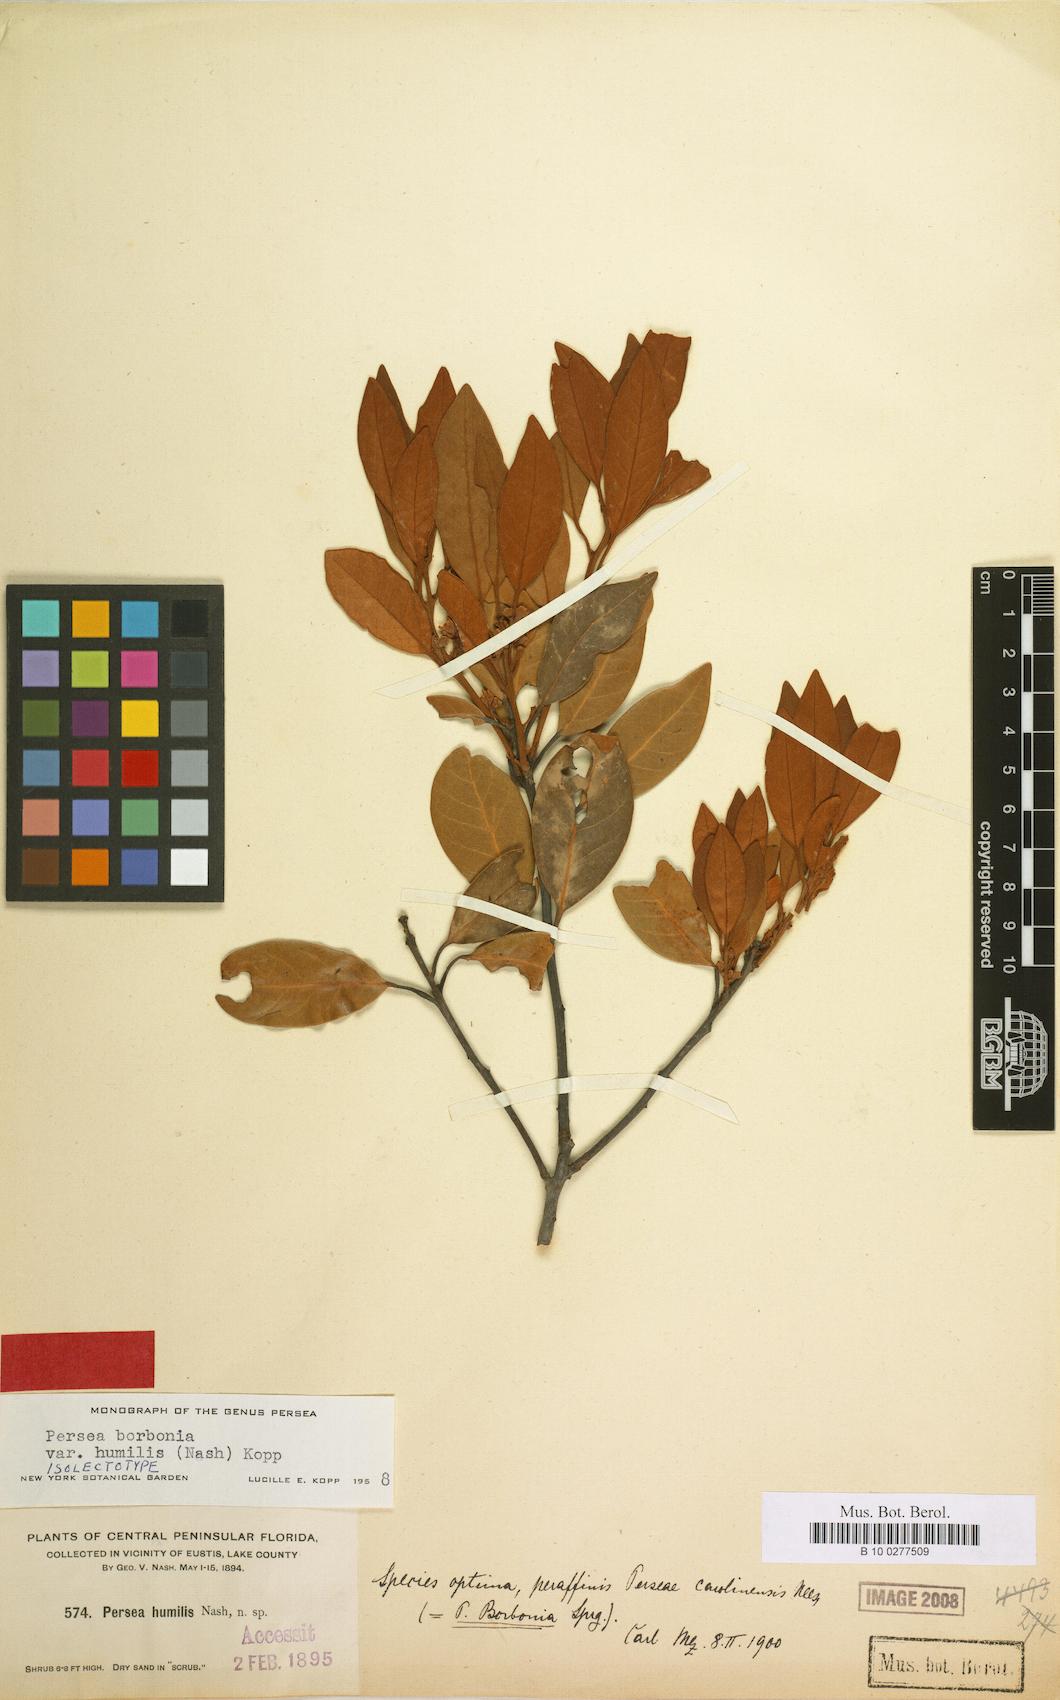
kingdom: Plantae
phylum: Tracheophyta
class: Magnoliopsida
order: Laurales
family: Lauraceae
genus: Persea
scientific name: Persea humilis
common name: Silkbay
